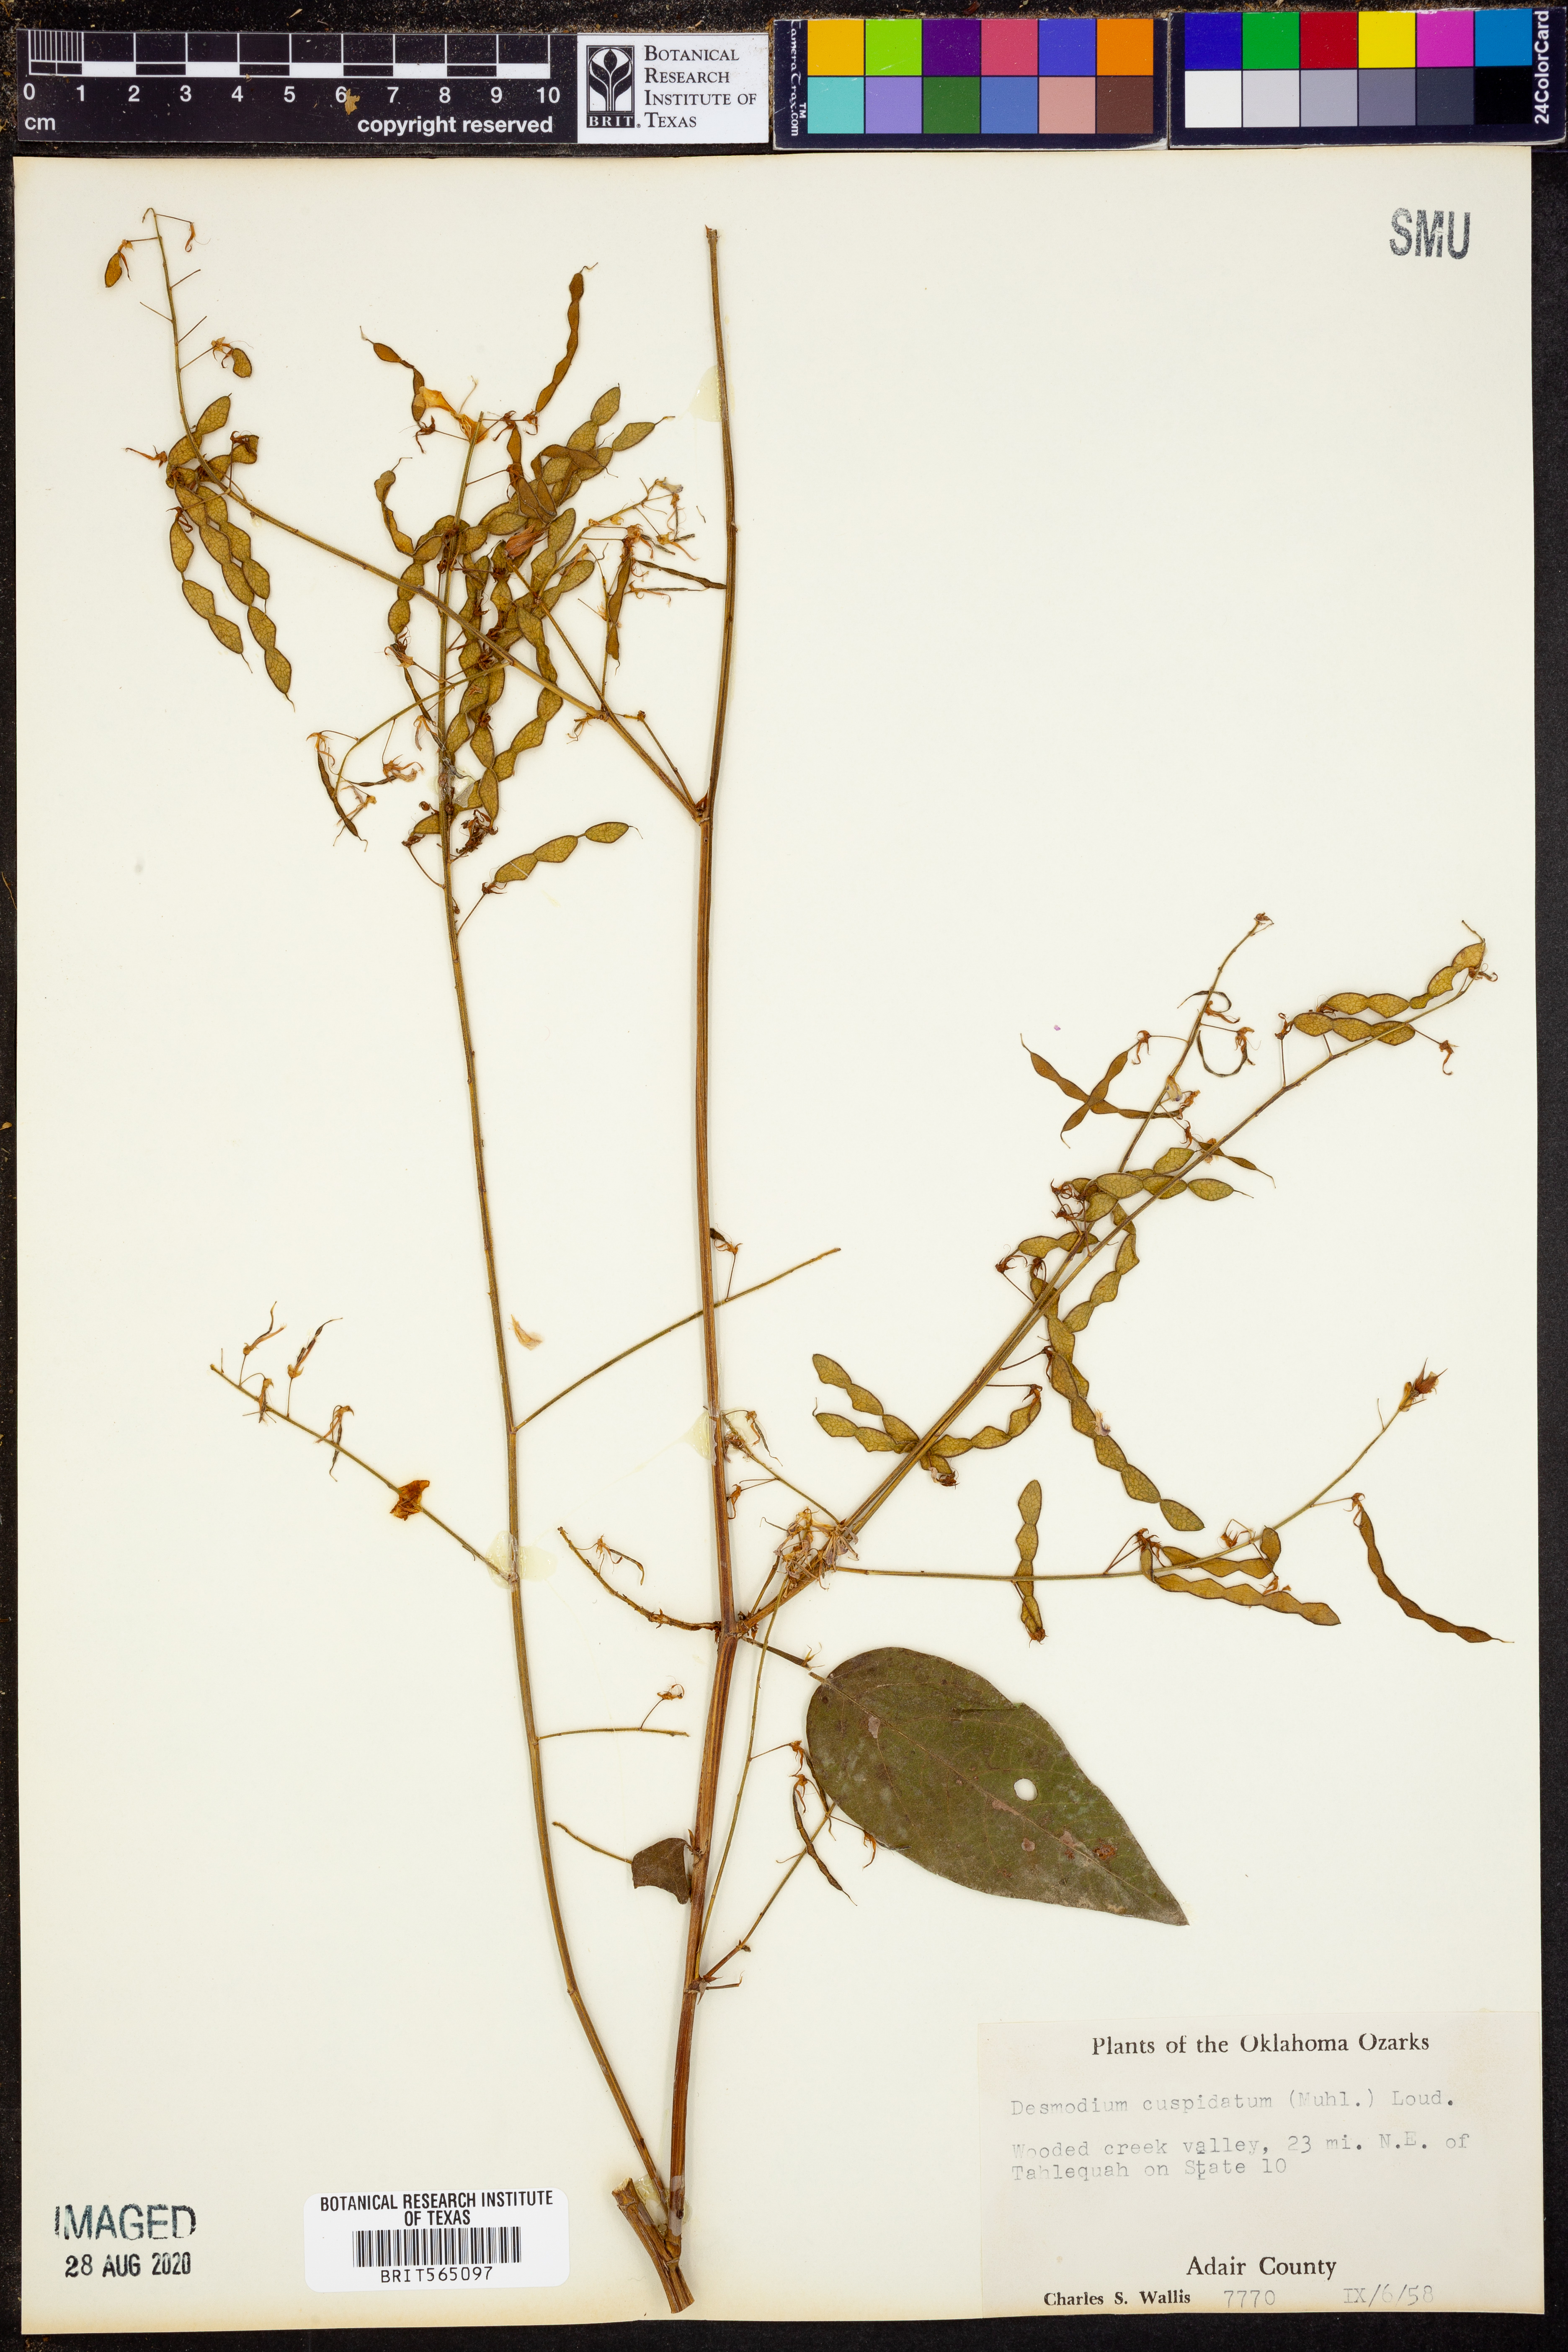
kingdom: Plantae
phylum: Tracheophyta
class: Magnoliopsida
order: Fabales
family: Fabaceae
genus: Desmodium
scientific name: Desmodium cuspidatum
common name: Big tick trefoil
